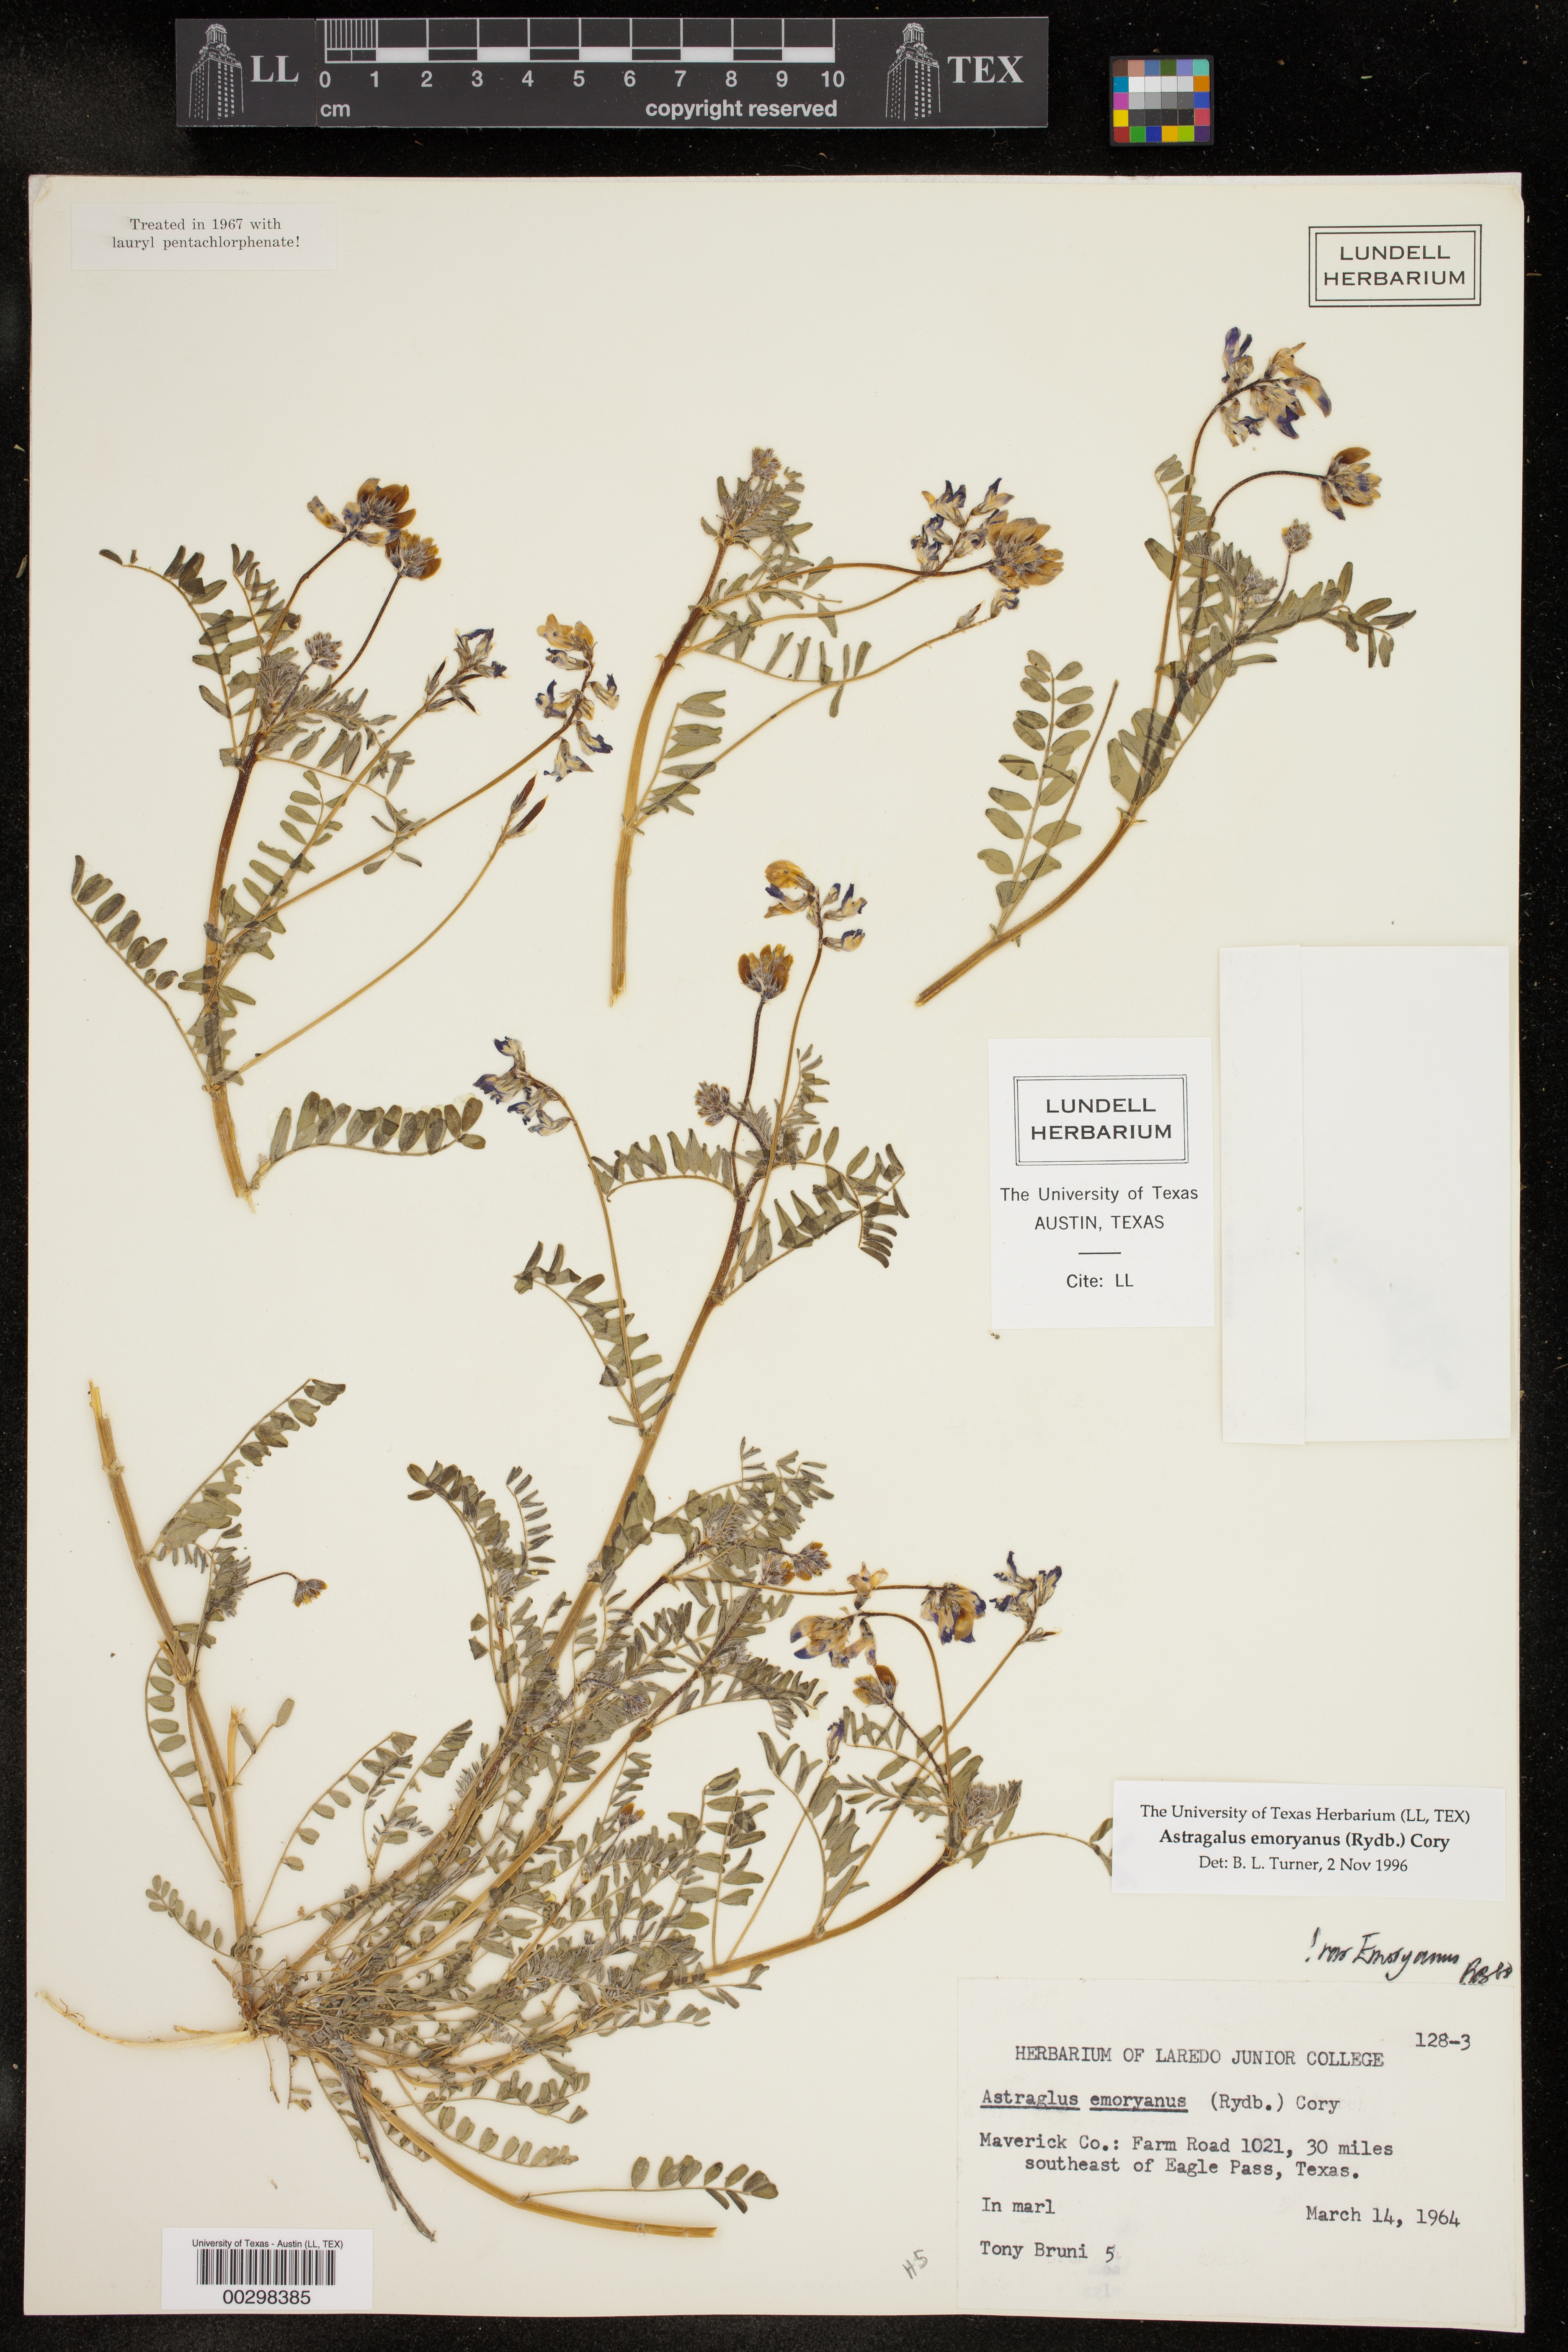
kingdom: Plantae
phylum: Tracheophyta
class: Magnoliopsida
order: Fabales
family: Fabaceae
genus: Astragalus
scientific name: Astragalus emoryanus
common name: Emory's milk-vetch
